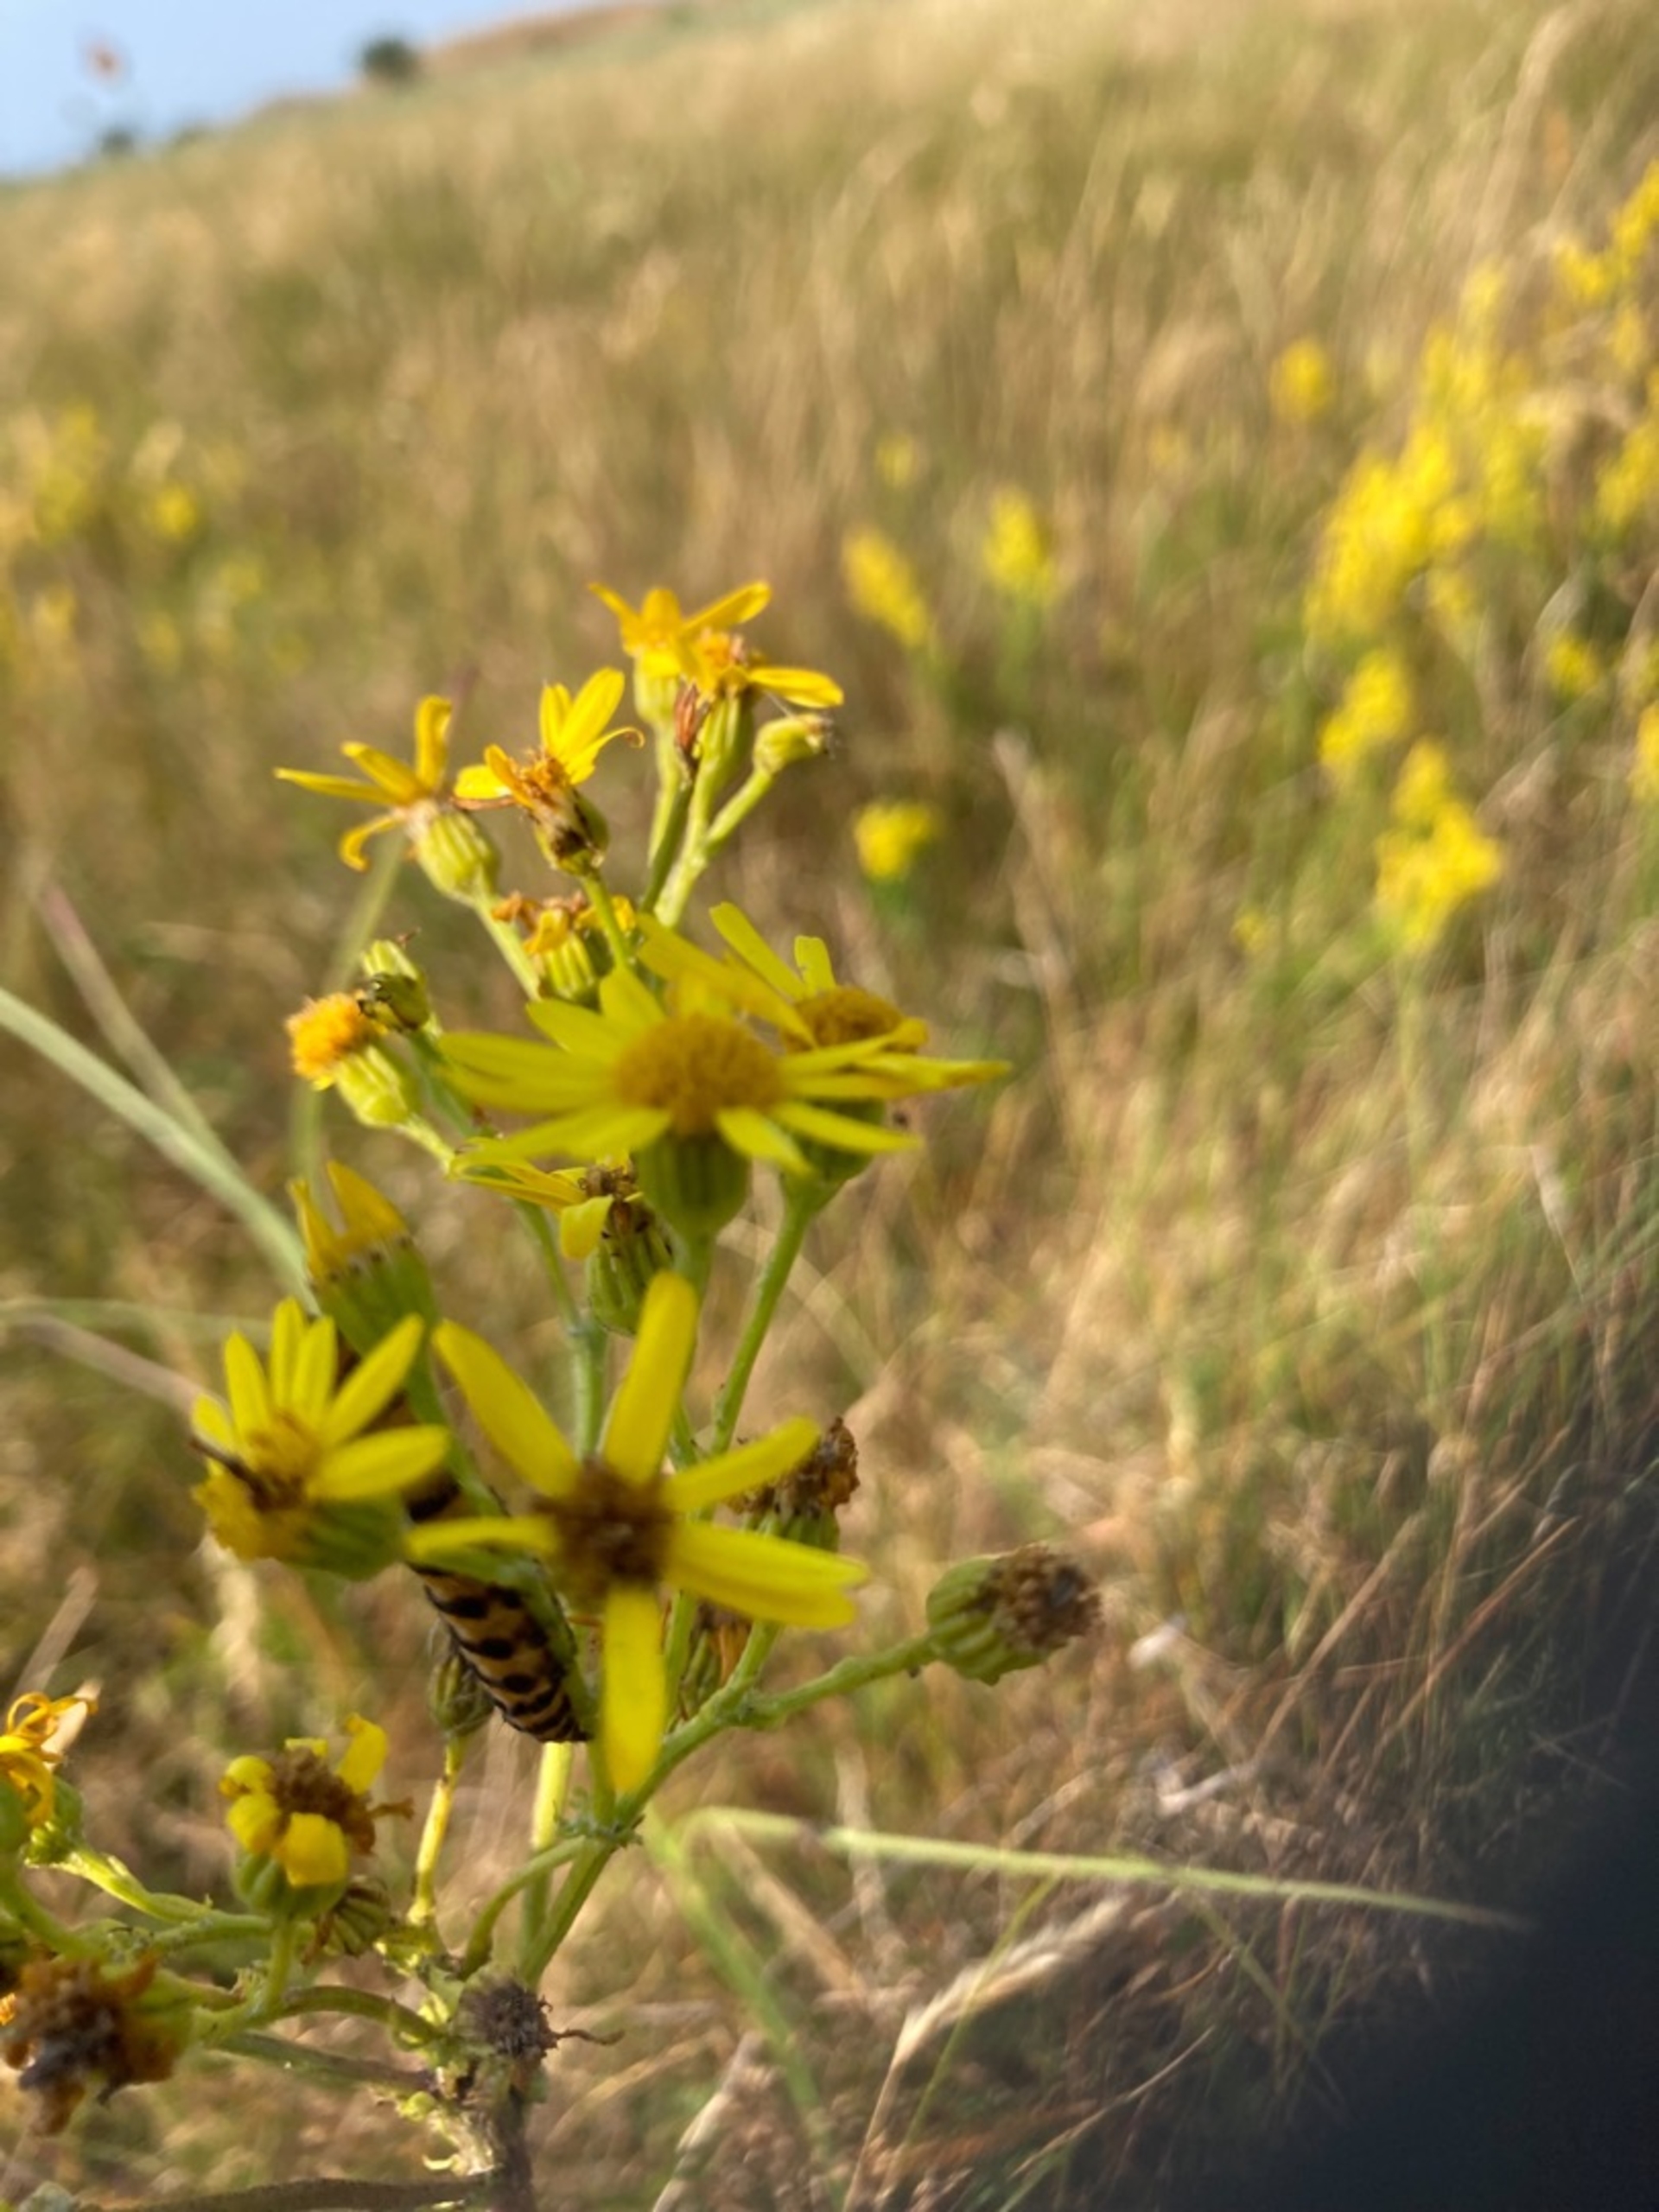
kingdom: Animalia
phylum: Arthropoda
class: Insecta
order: Lepidoptera
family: Erebidae
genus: Tyria
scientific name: Tyria jacobaeae
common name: Blodplet
